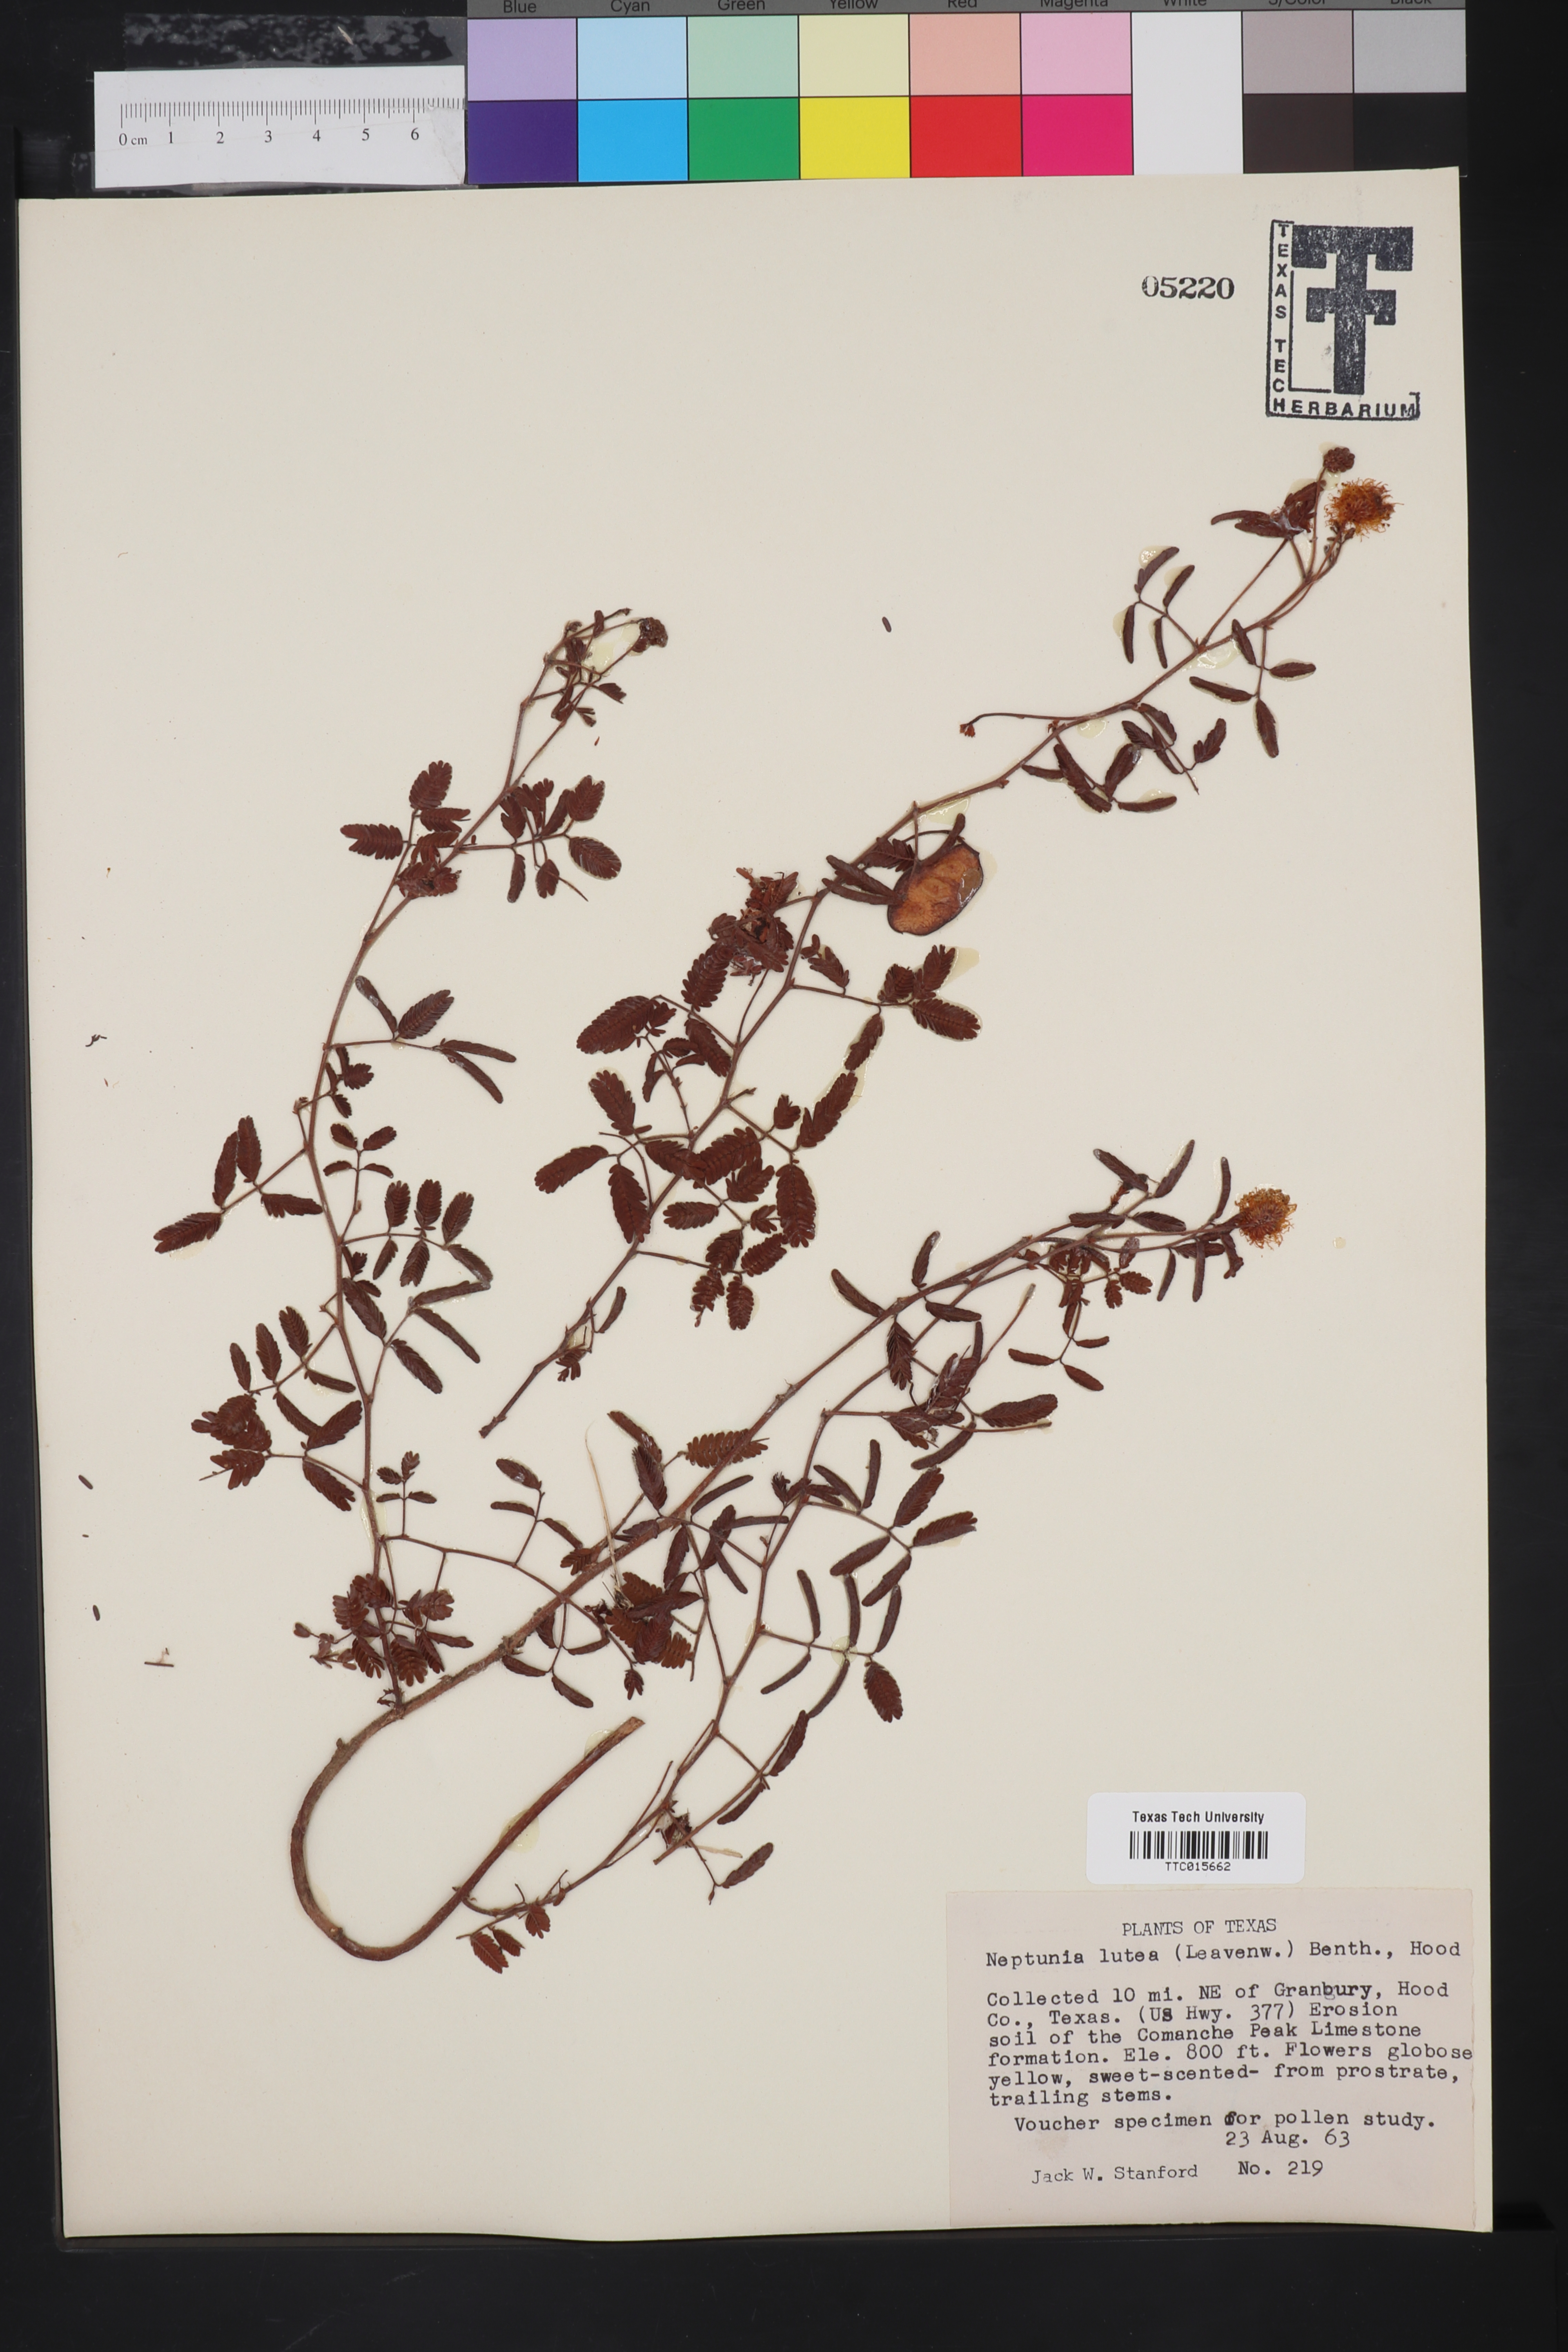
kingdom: Plantae
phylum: Tracheophyta
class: Magnoliopsida
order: Fabales
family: Fabaceae
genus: Neptunia
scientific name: Neptunia lutea
